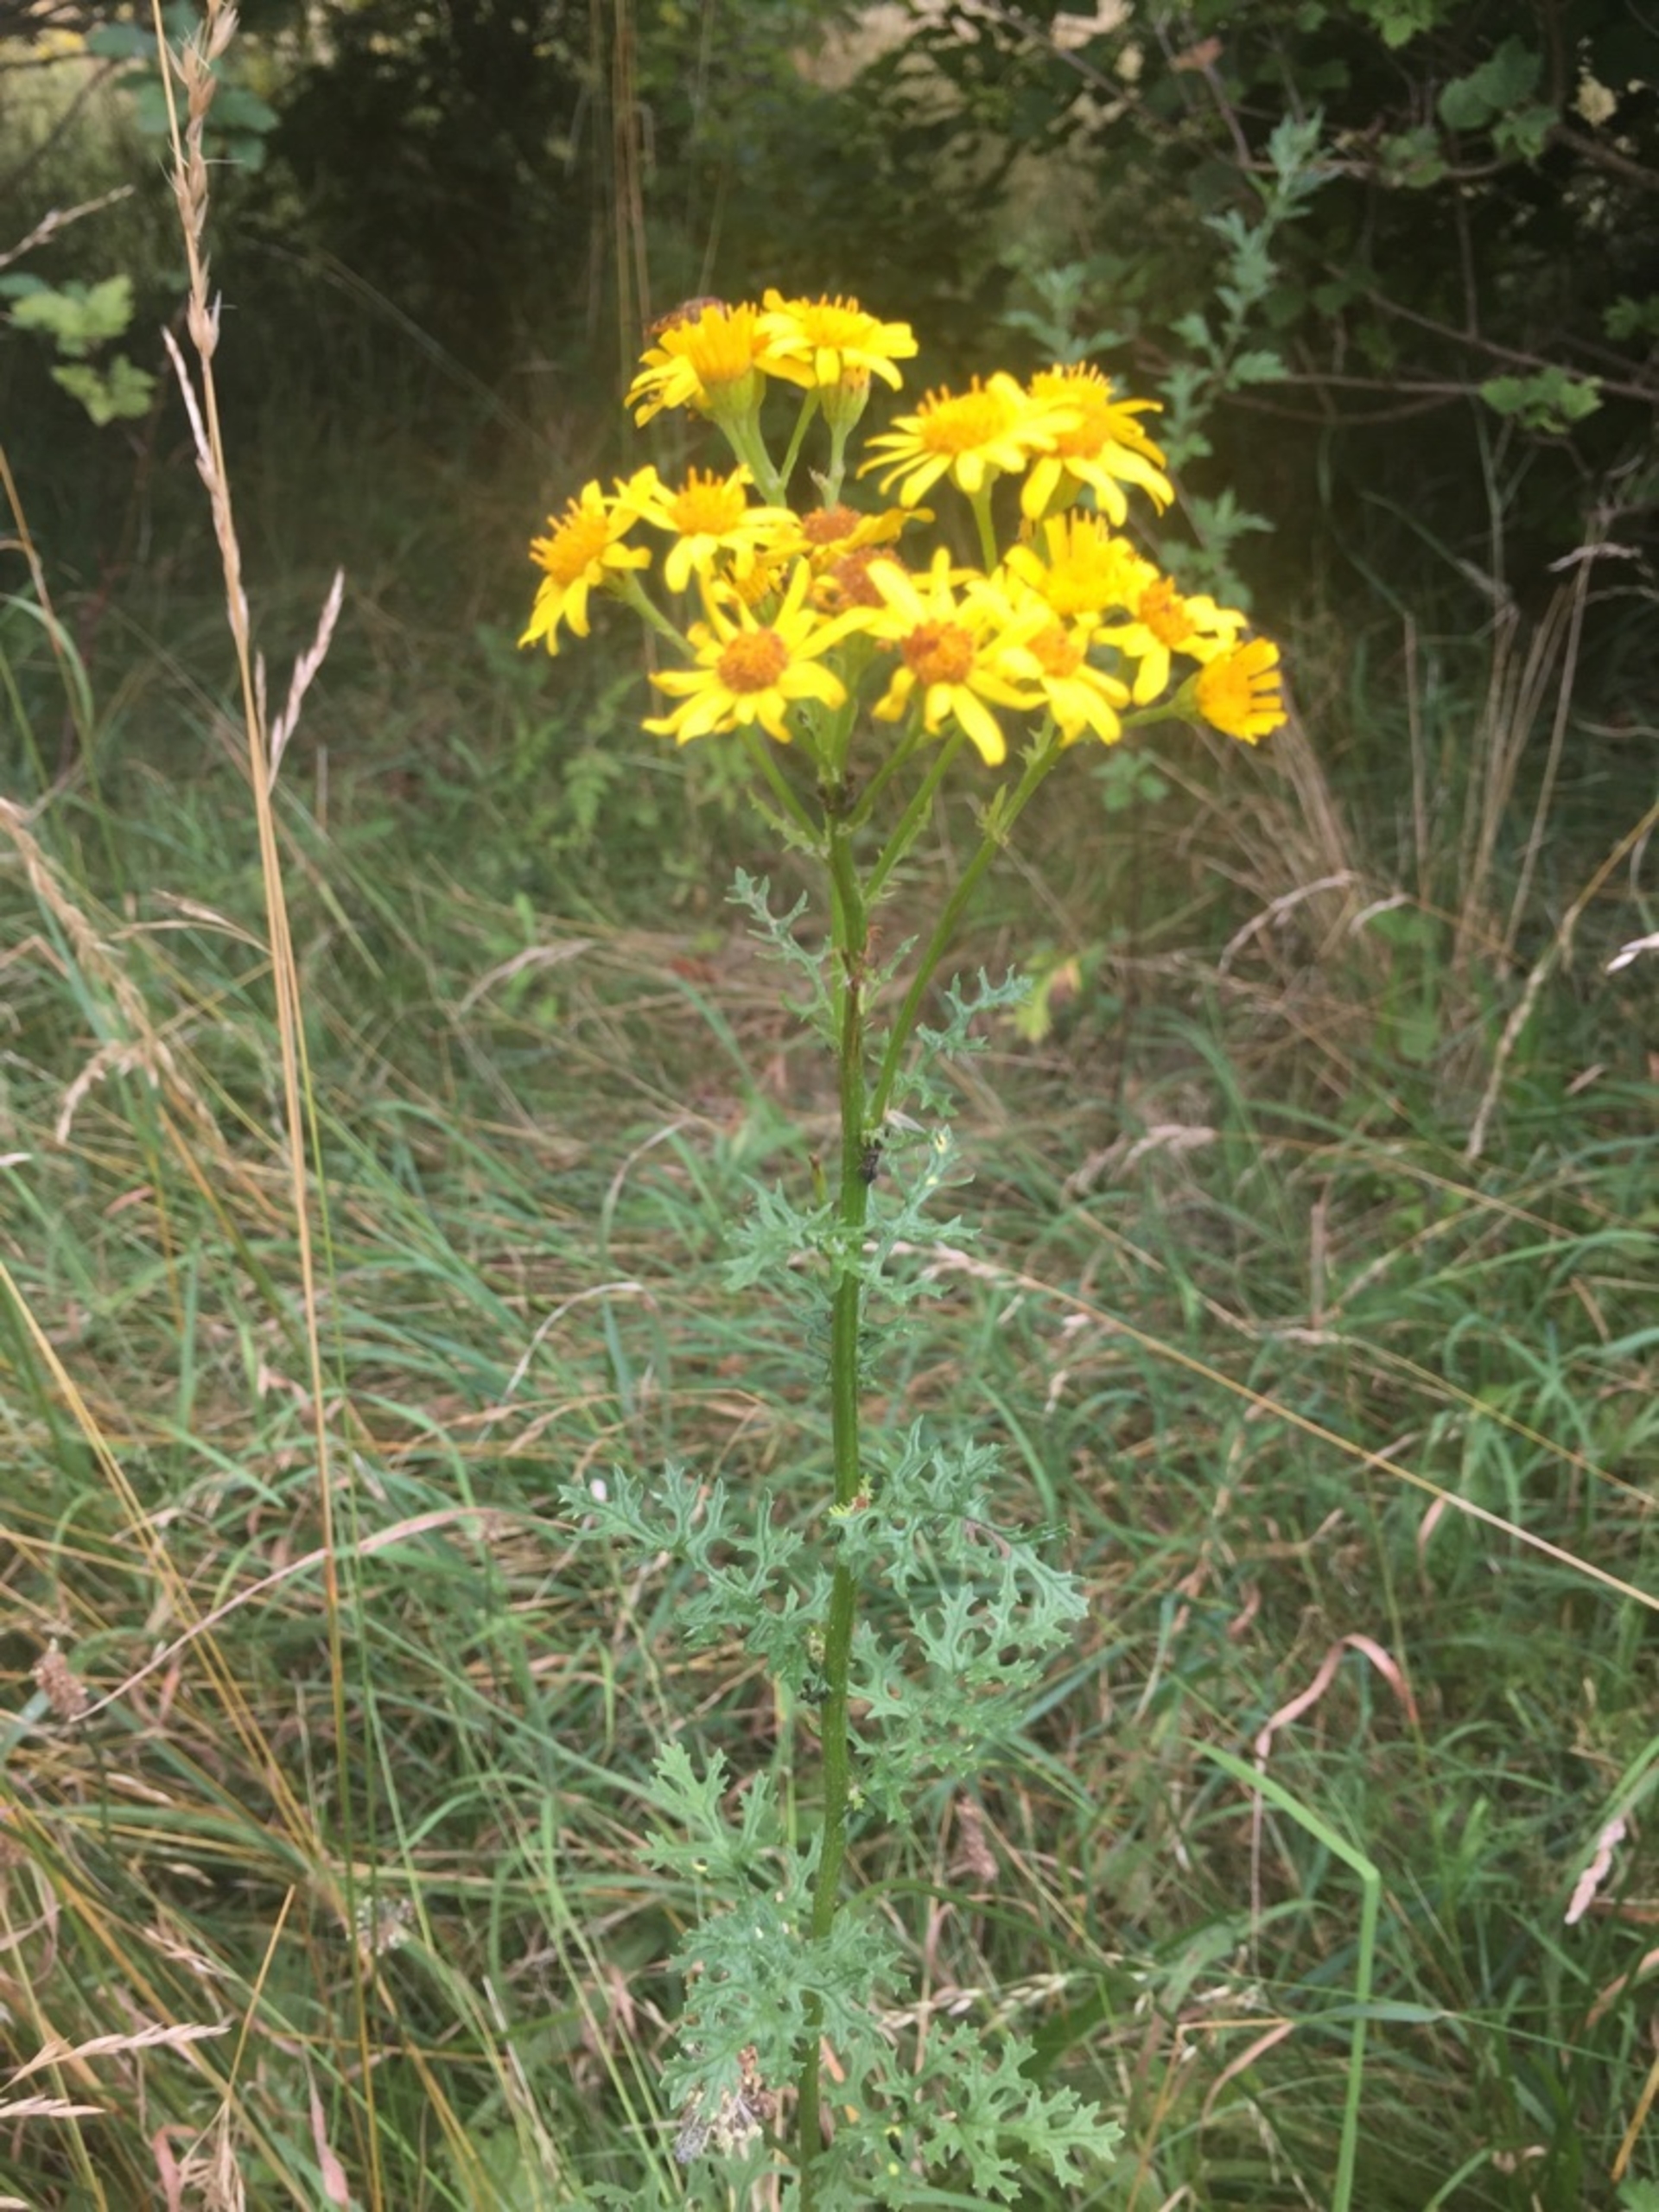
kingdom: Plantae
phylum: Tracheophyta
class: Magnoliopsida
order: Asterales
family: Asteraceae
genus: Jacobaea
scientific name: Jacobaea vulgaris
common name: Eng-brandbæger
